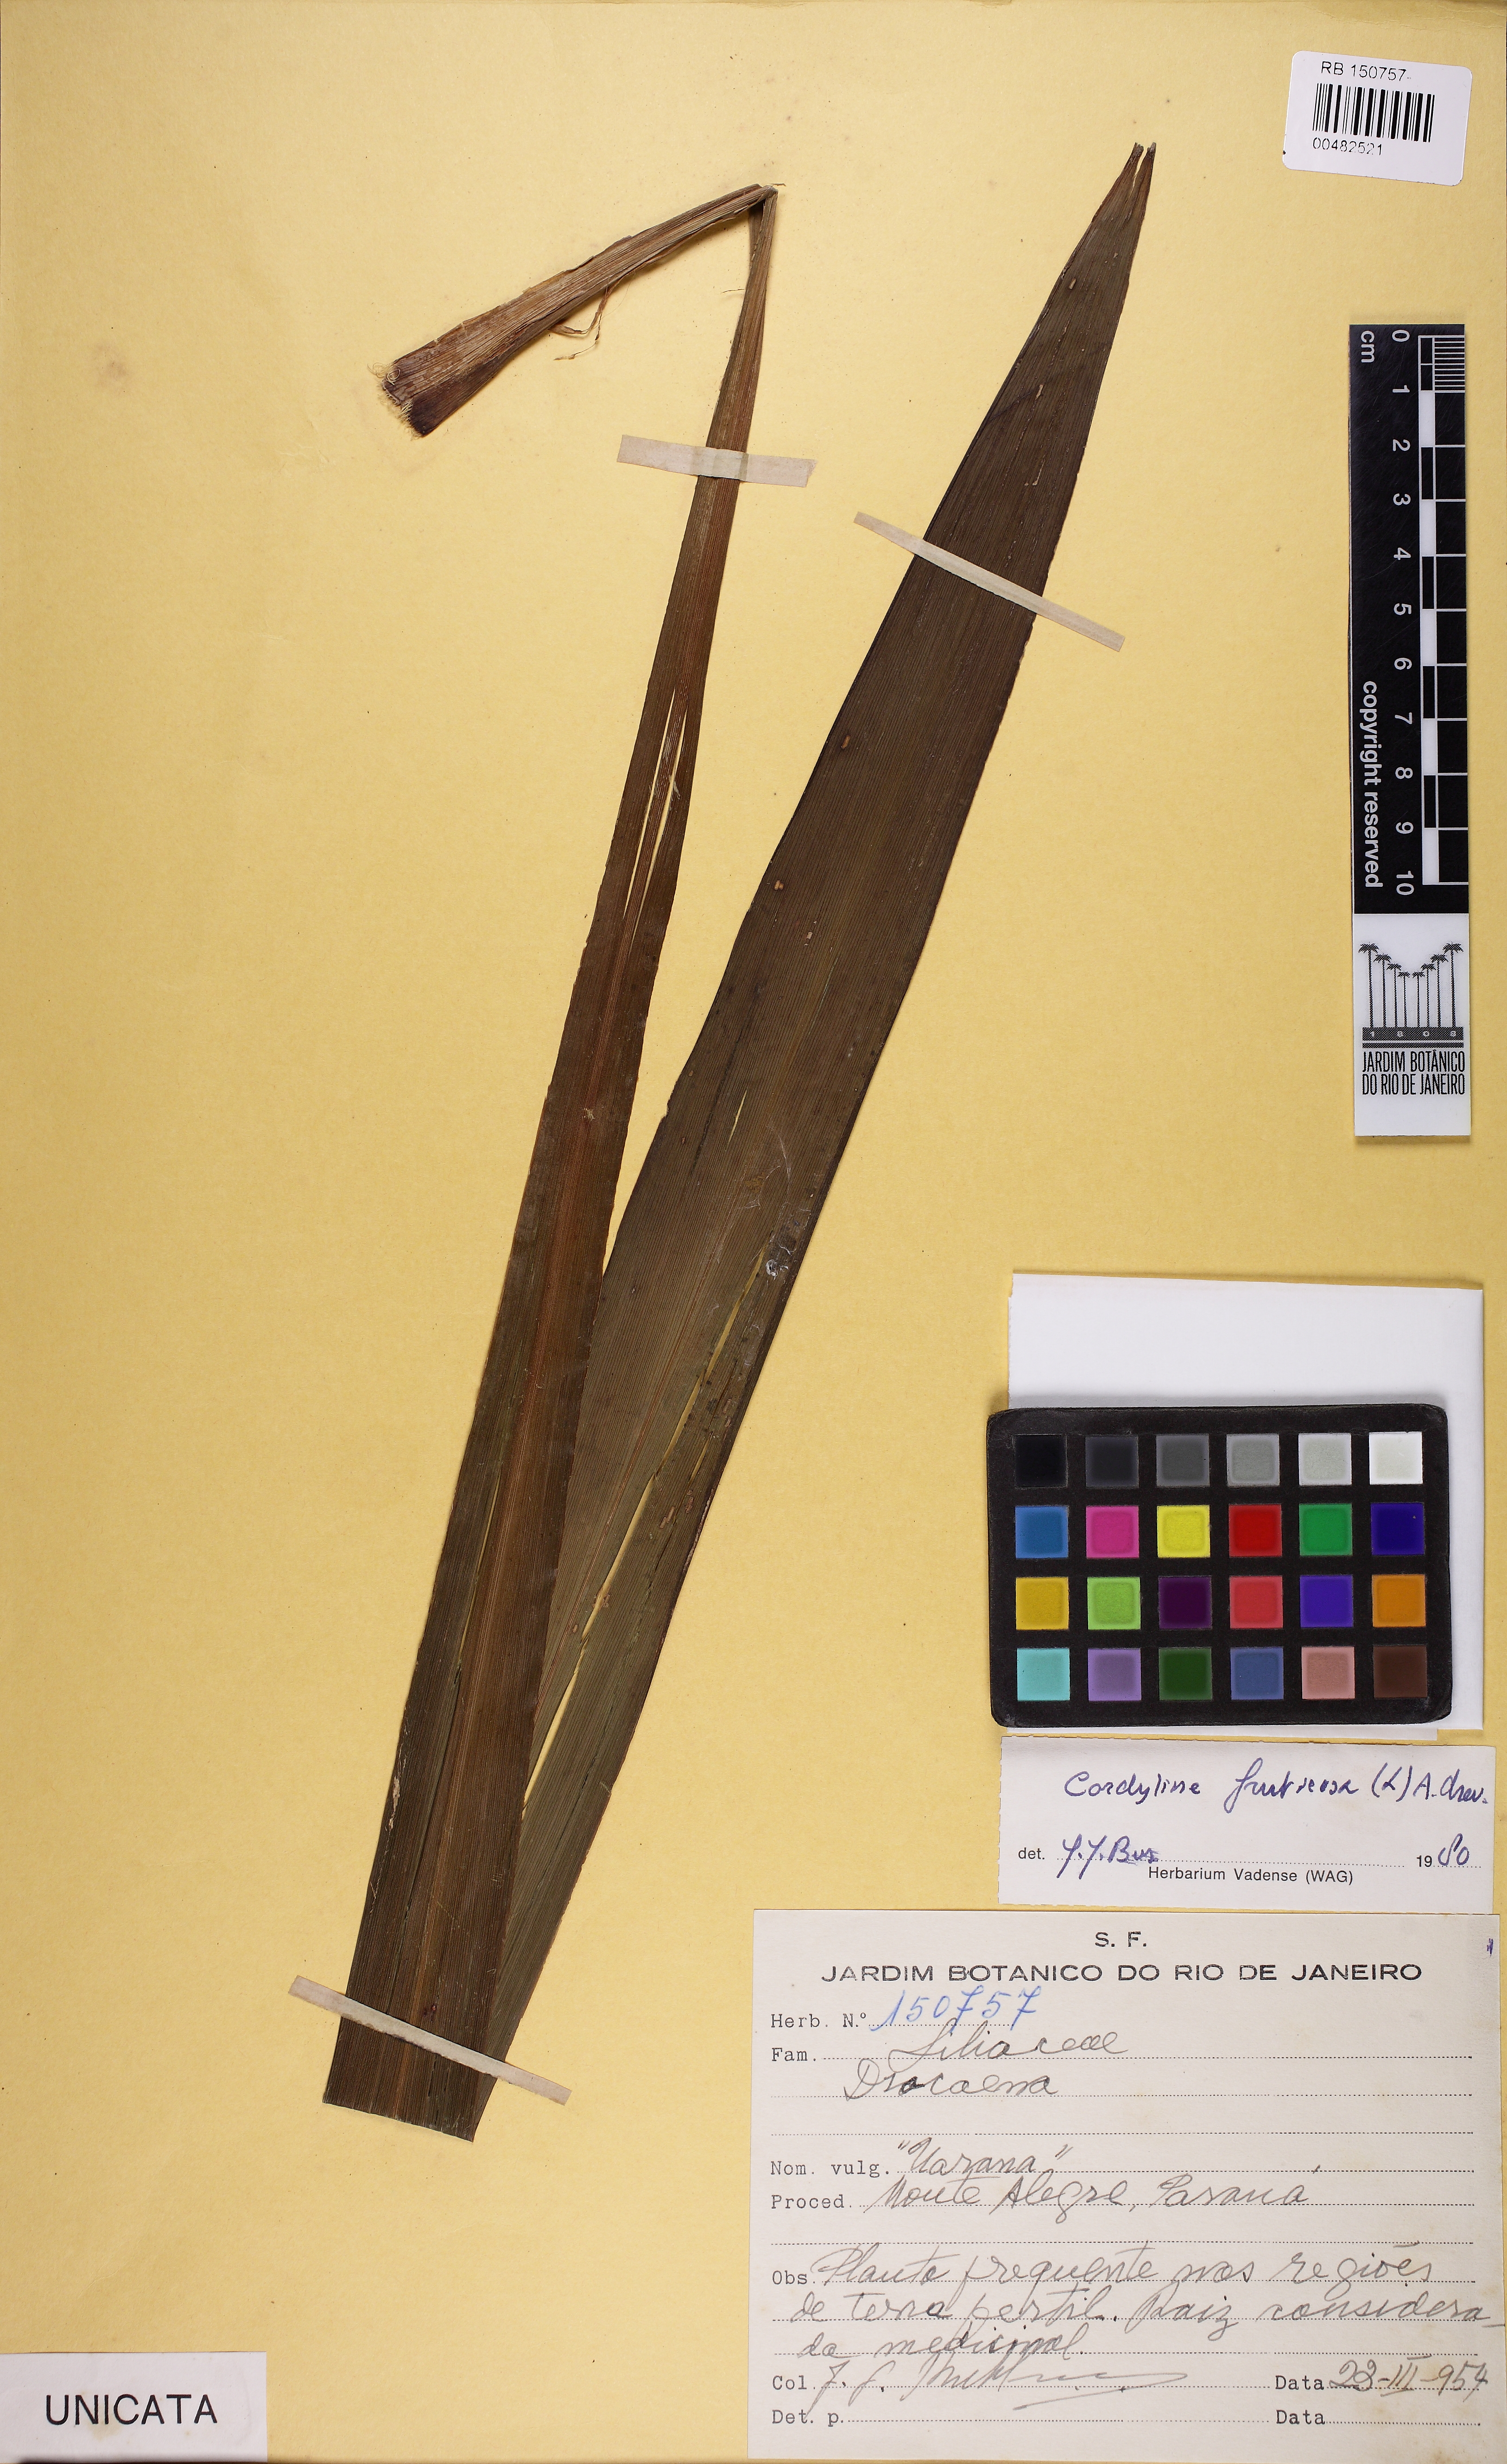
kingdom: Plantae
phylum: Tracheophyta
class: Liliopsida
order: Asparagales
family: Asparagaceae
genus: Cordyline
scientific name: Cordyline fruticosa
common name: Good-luck-plant
